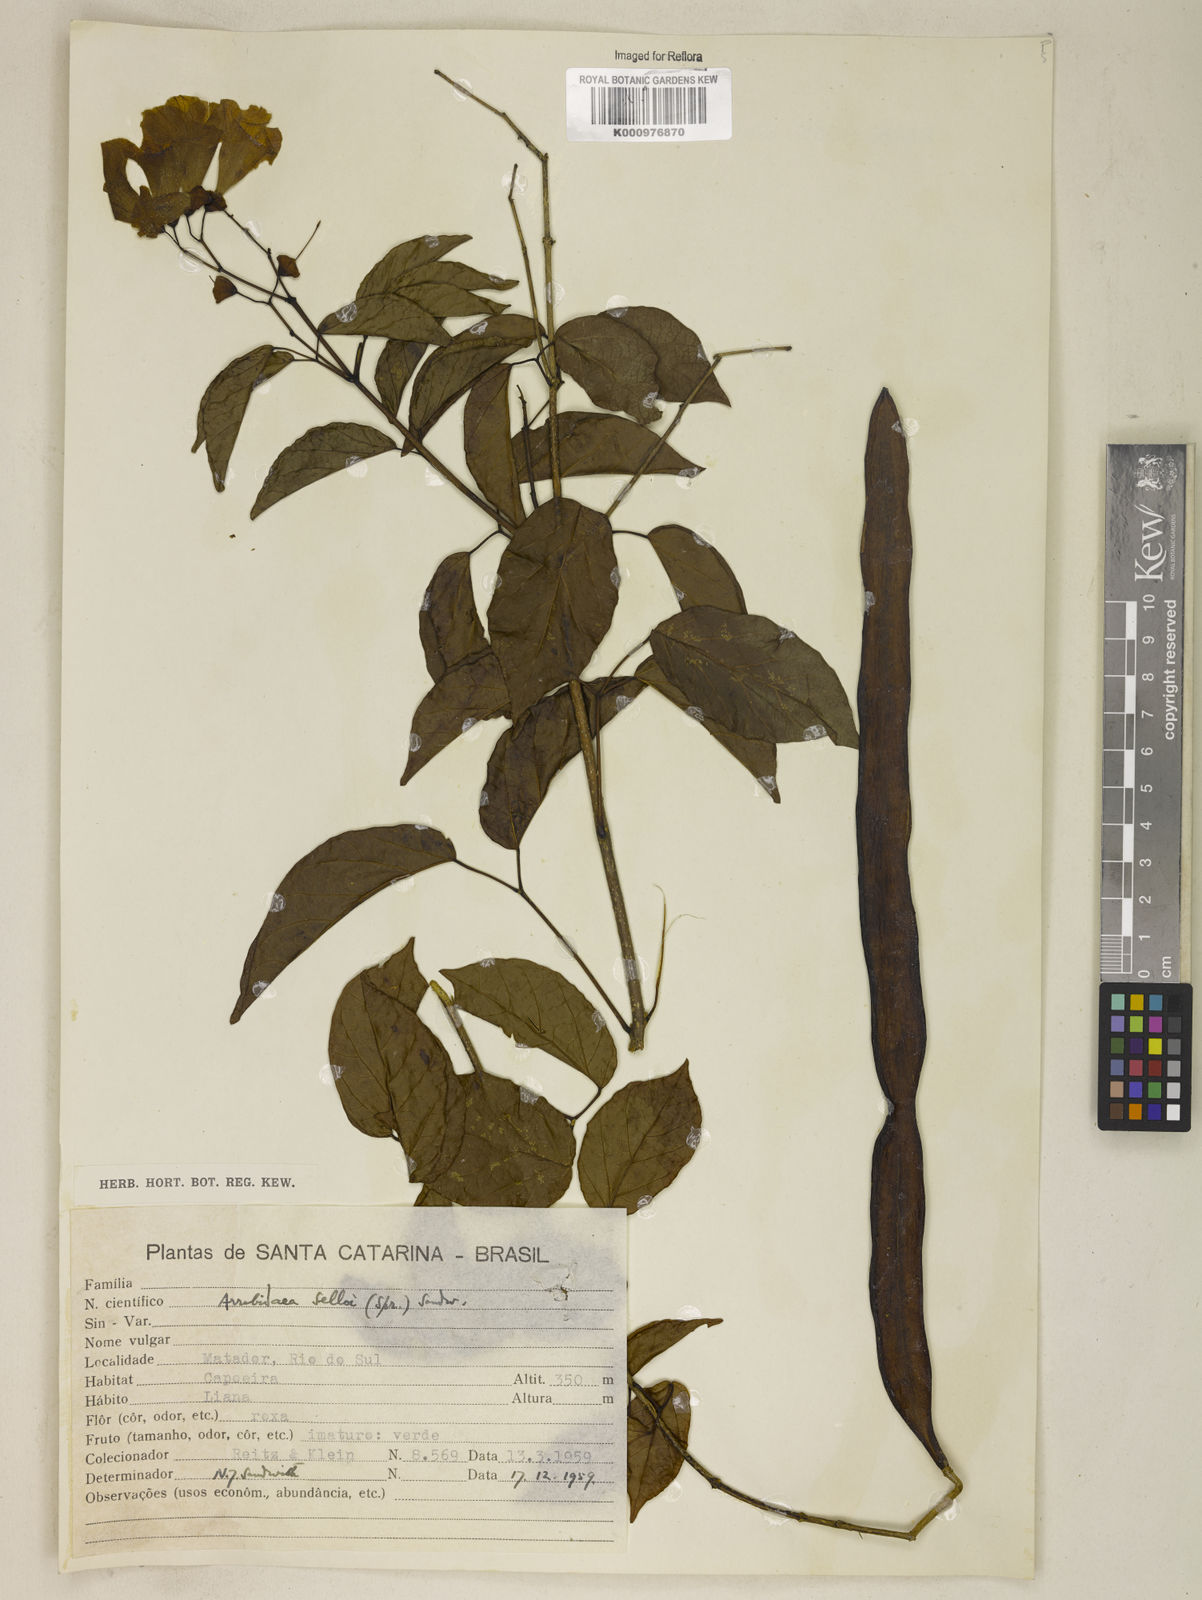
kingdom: Plantae
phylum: Tracheophyta
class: Magnoliopsida
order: Lamiales
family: Bignoniaceae
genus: Tanaecium
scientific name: Tanaecium selloi
